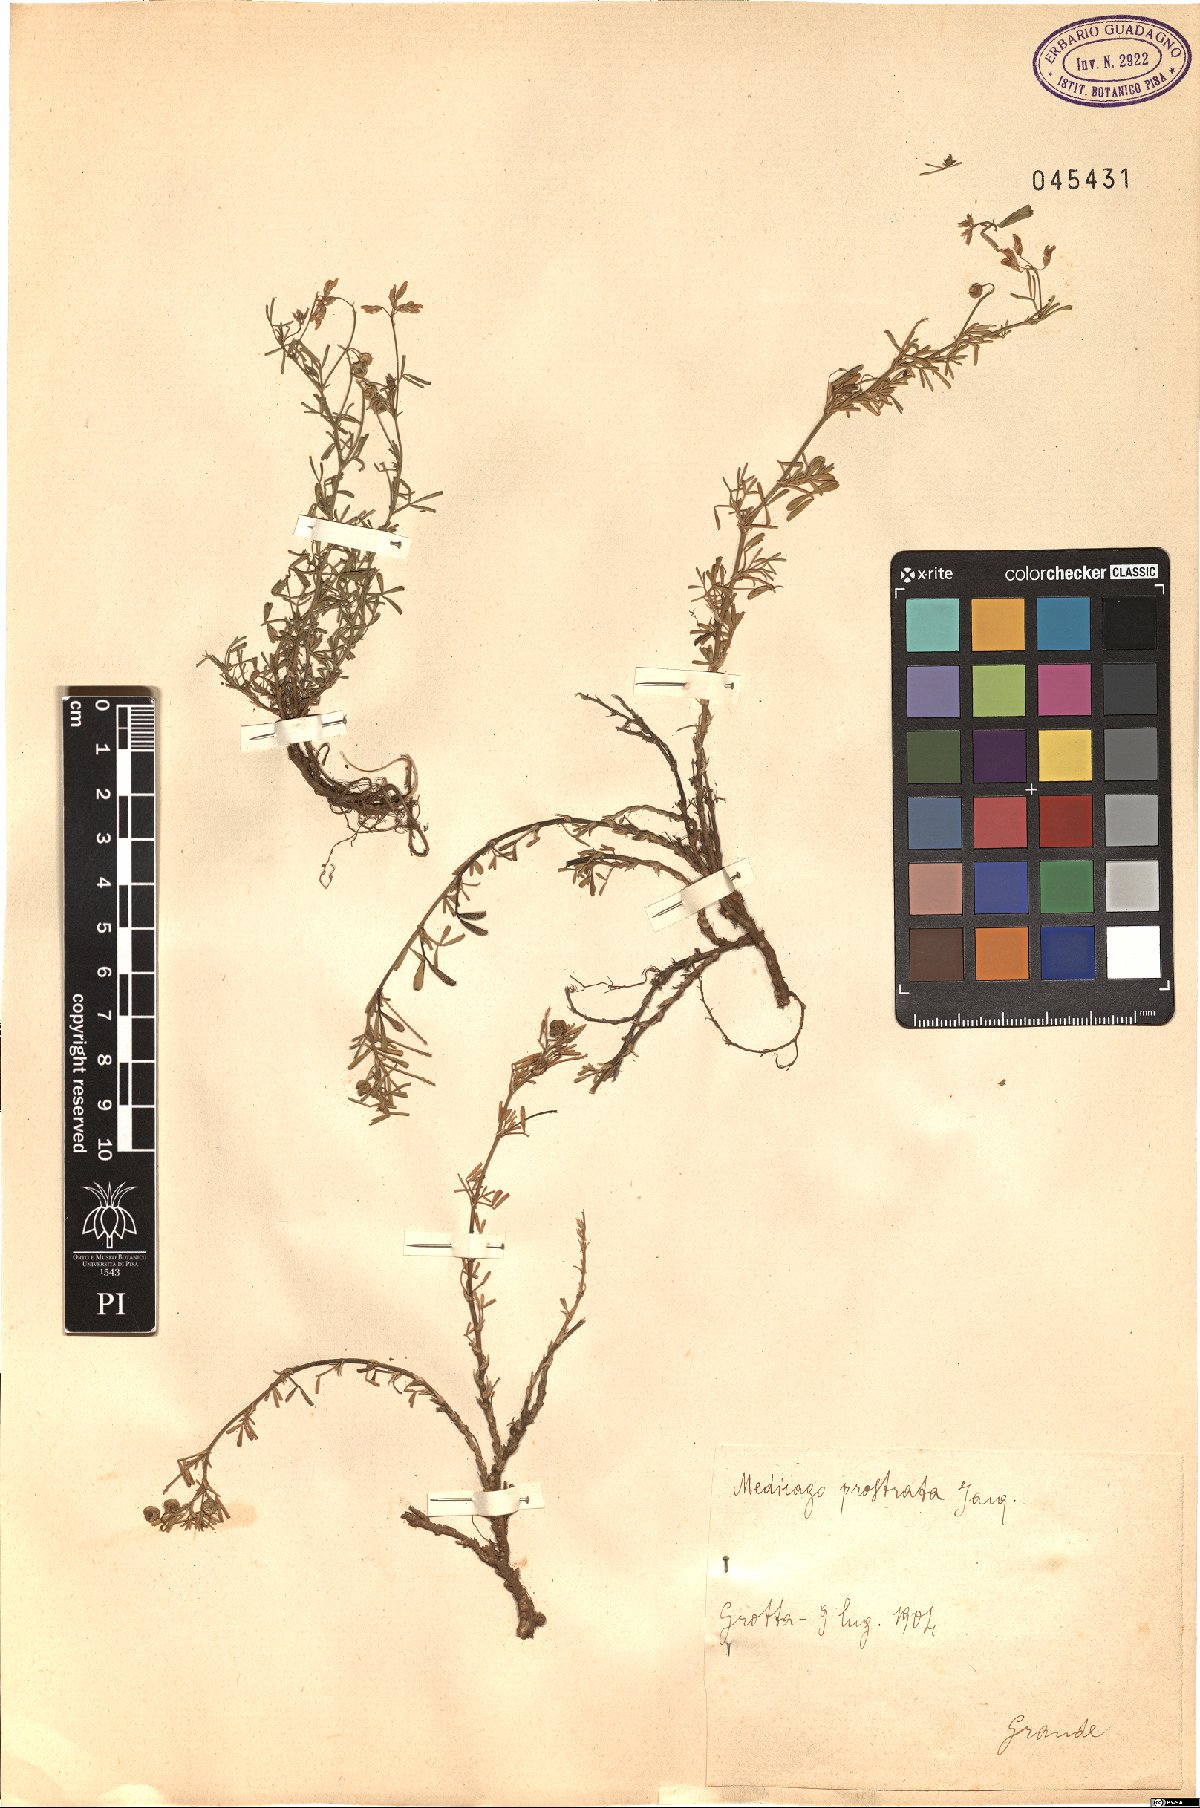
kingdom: Plantae
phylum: Tracheophyta
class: Magnoliopsida
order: Fabales
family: Fabaceae
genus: Medicago
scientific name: Medicago prostrata
